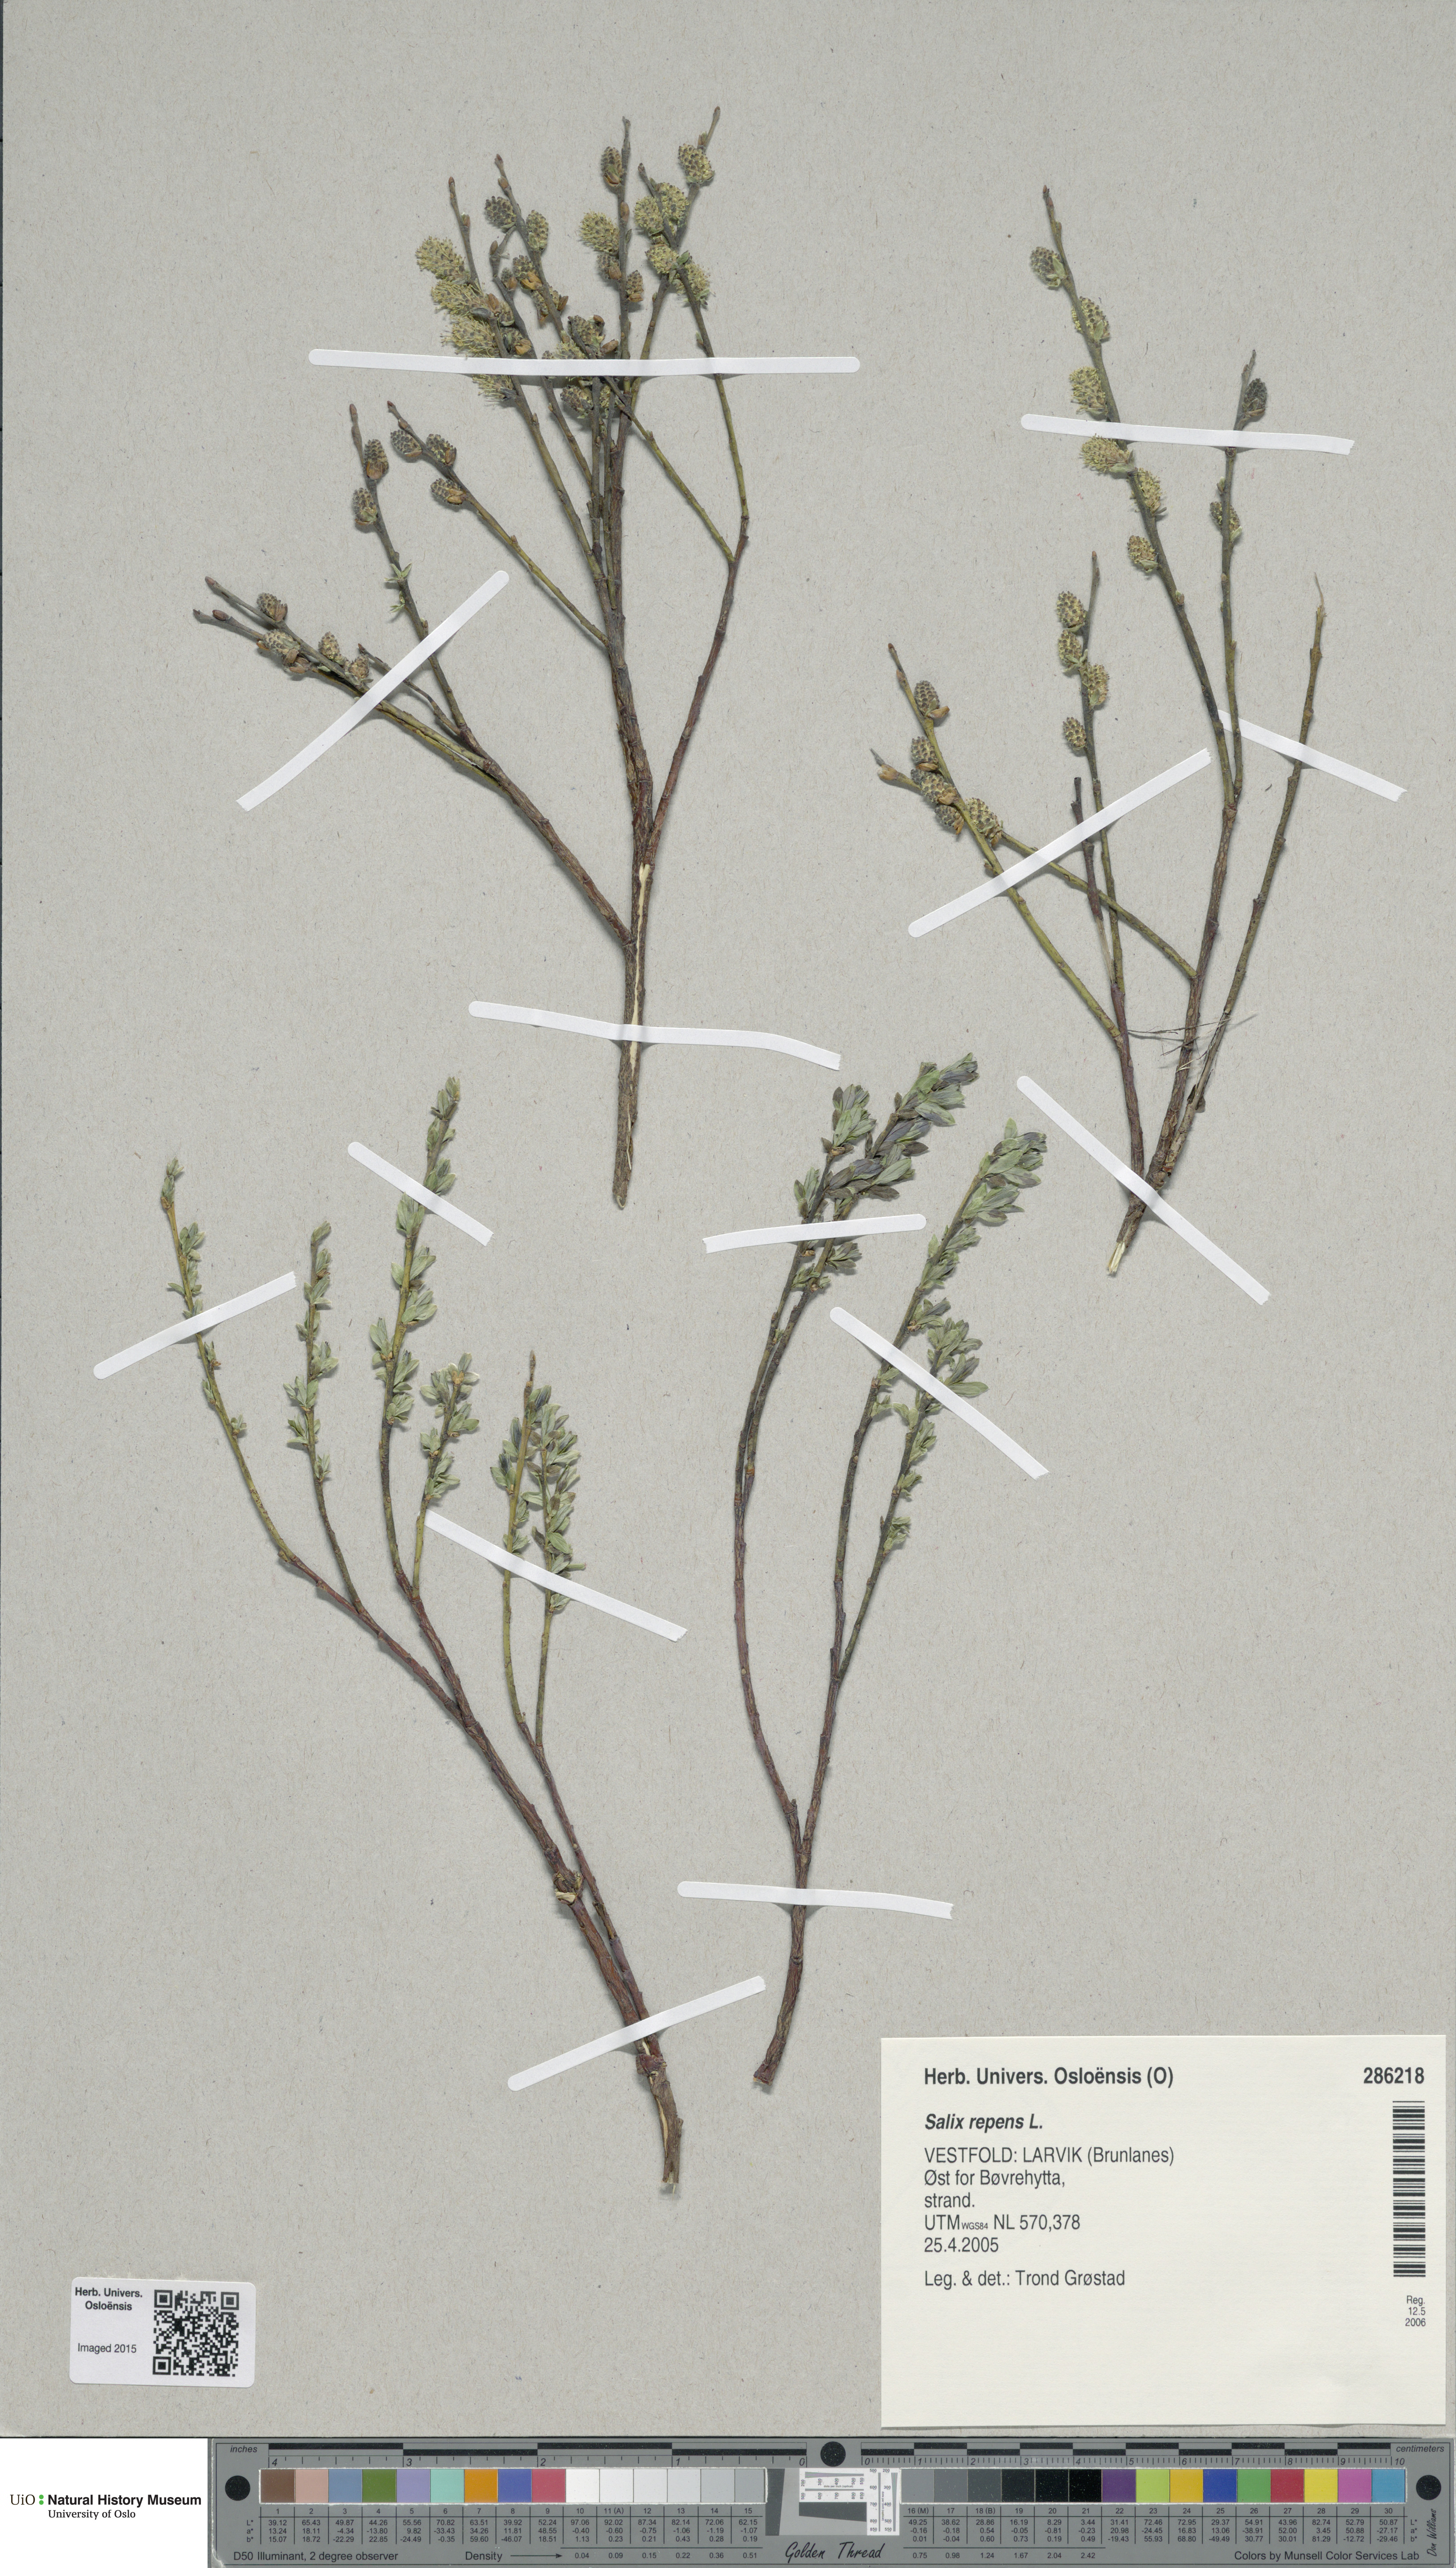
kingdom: Plantae
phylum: Tracheophyta
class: Magnoliopsida
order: Malpighiales
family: Salicaceae
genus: Salix
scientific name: Salix repens
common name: Creeping willow
